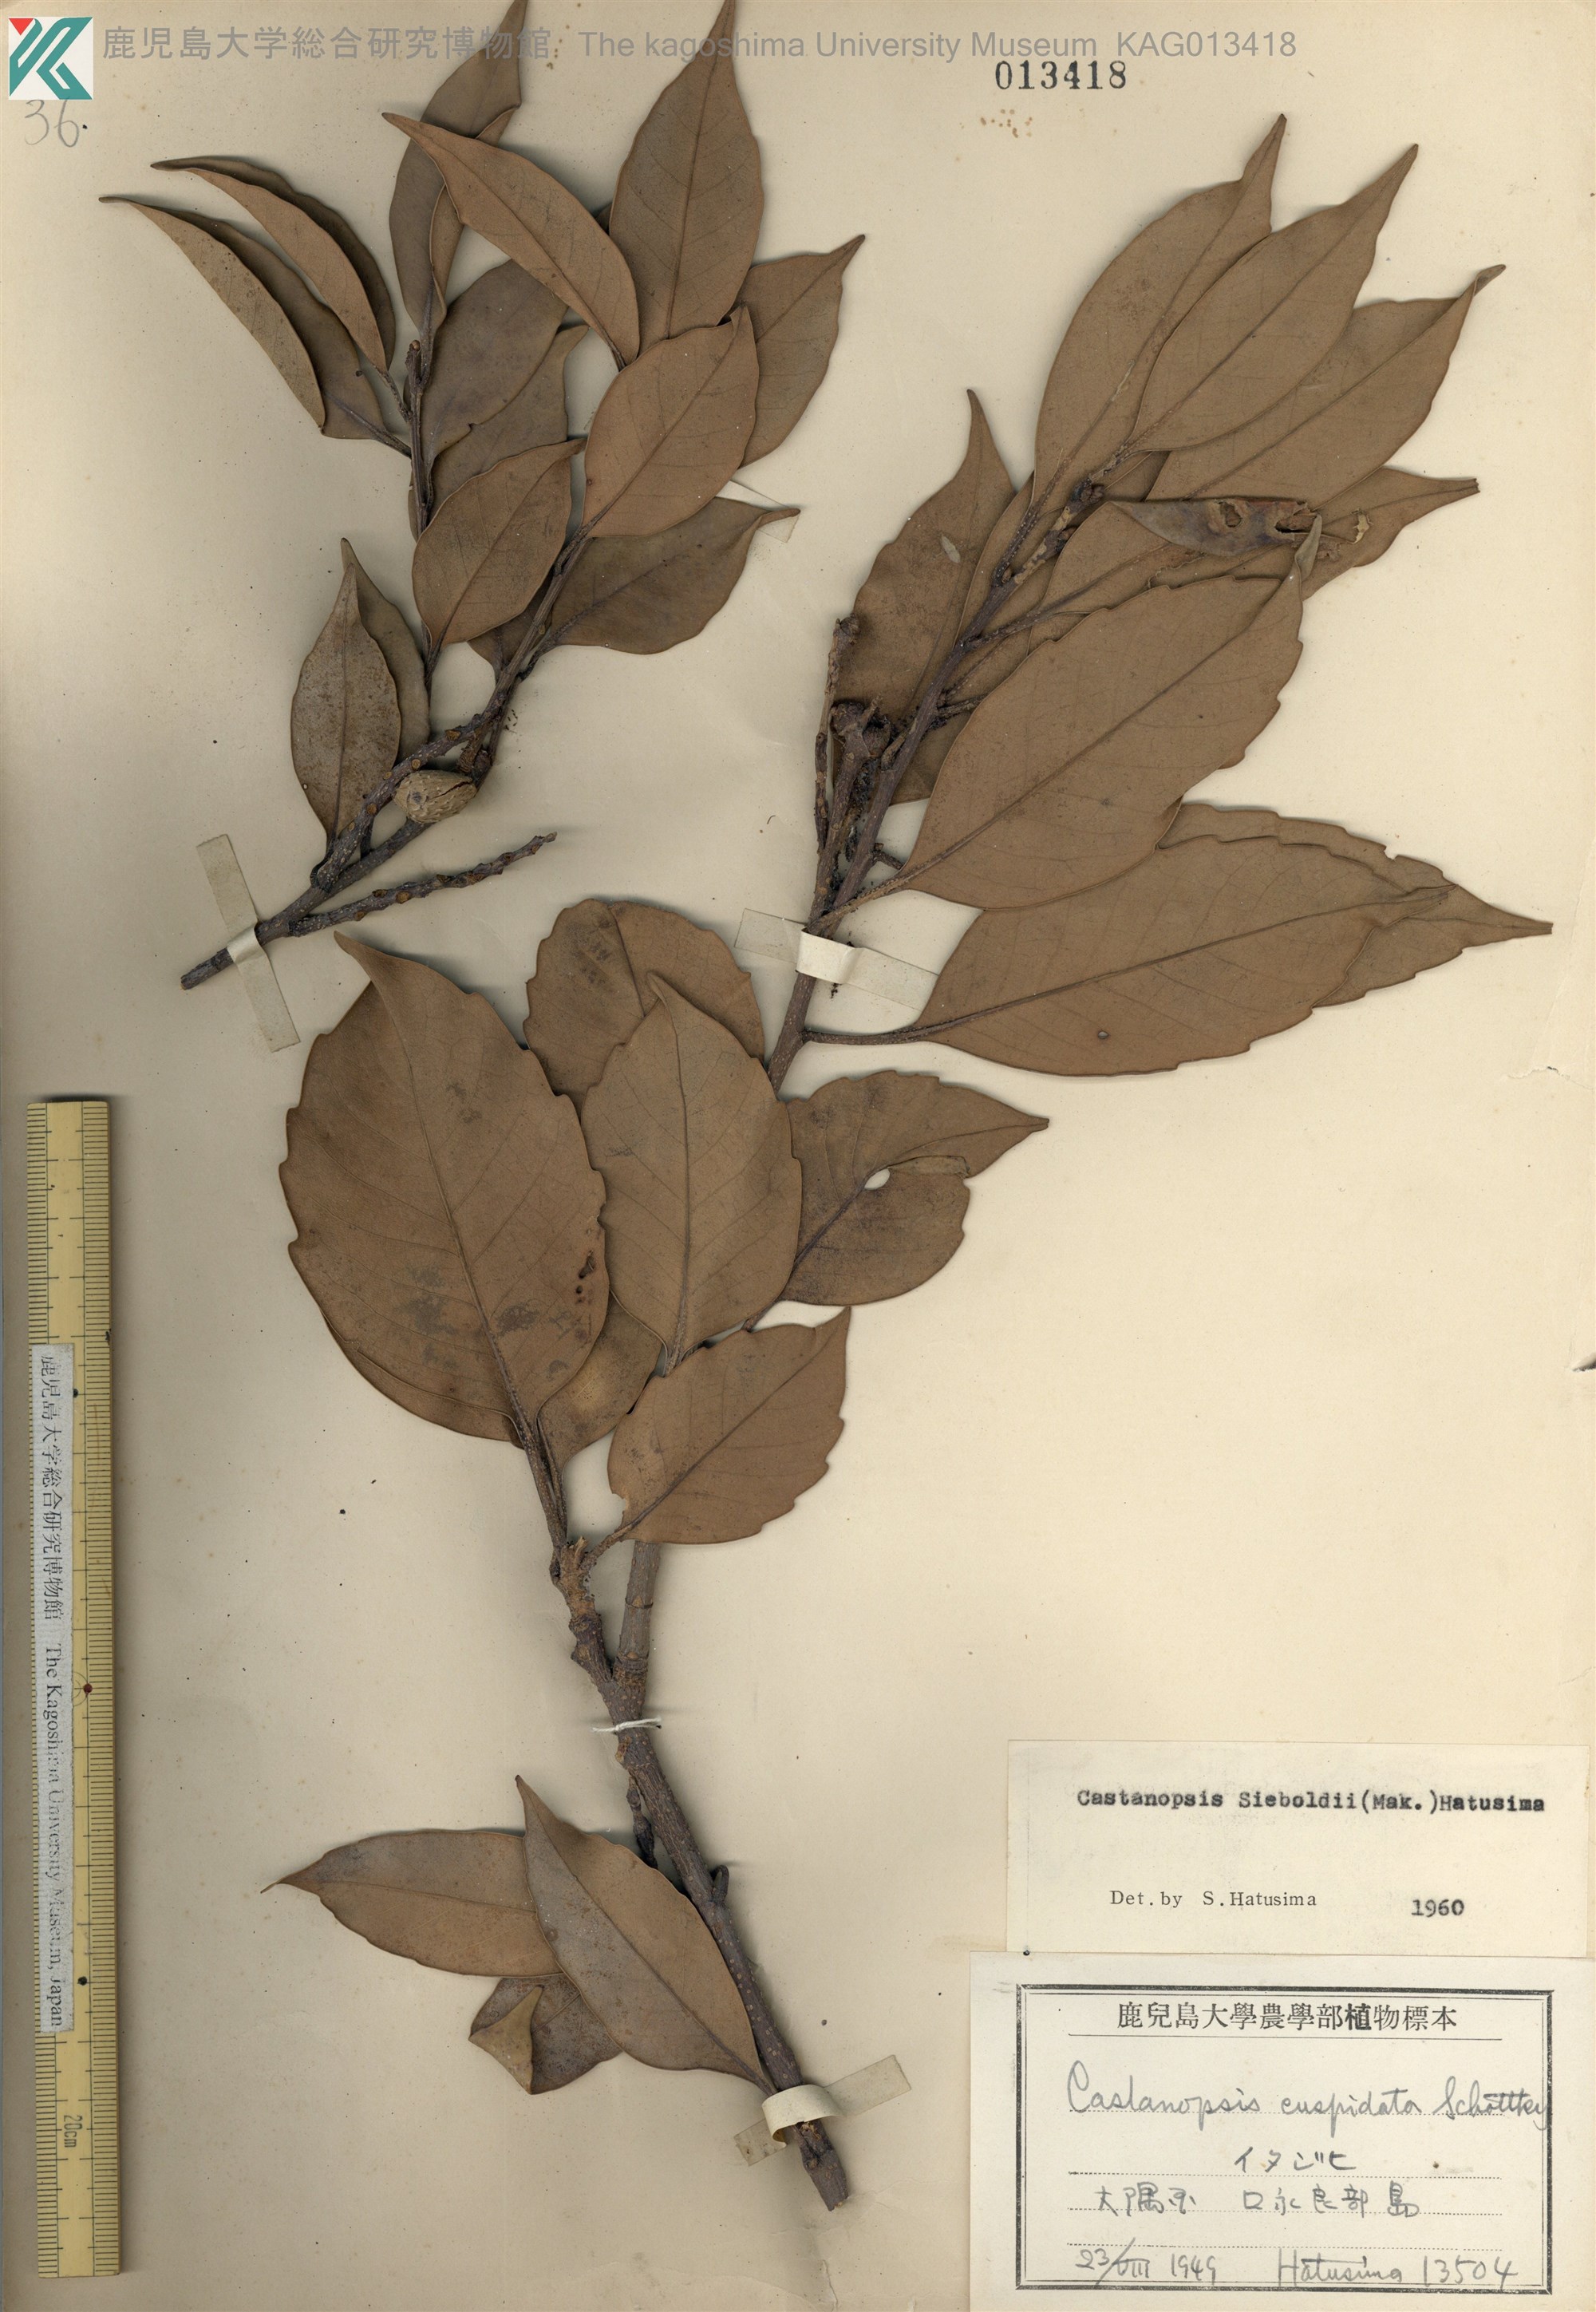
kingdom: Plantae
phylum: Tracheophyta
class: Magnoliopsida
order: Fagales
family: Fagaceae
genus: Castanopsis
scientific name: Castanopsis sieboldii
